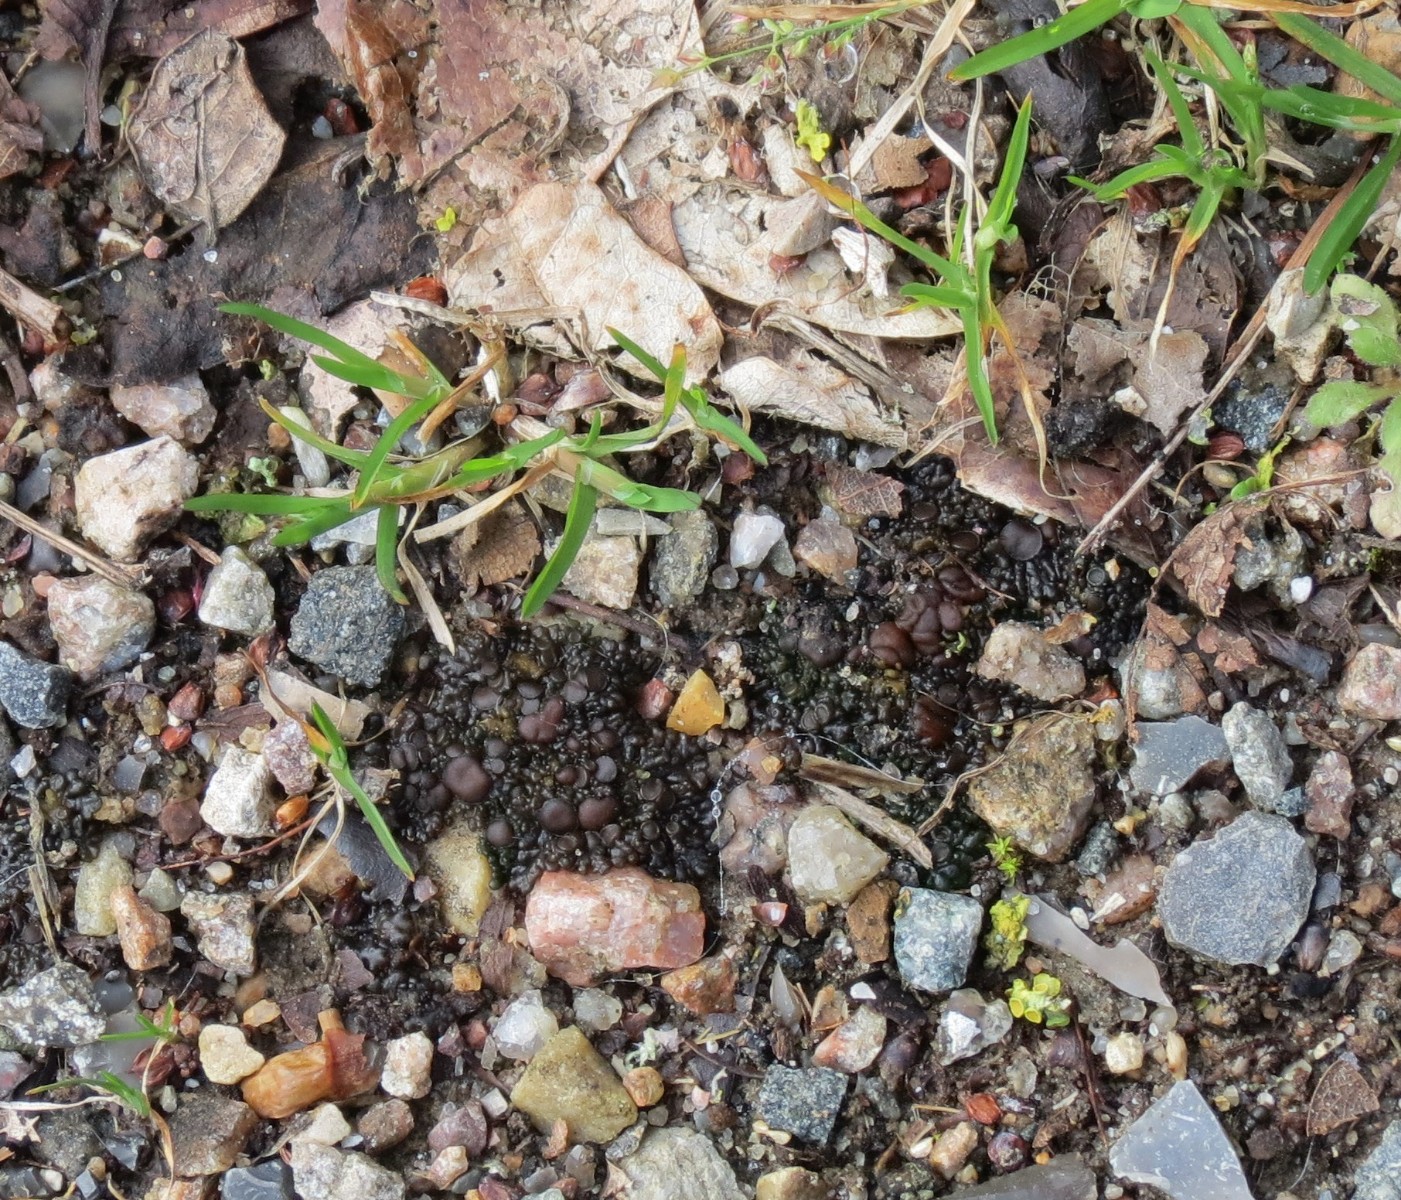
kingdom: Fungi
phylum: Ascomycota
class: Lecanoromycetes
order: Peltigerales
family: Collemataceae
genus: Enchylium
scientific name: Enchylium tenax
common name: tyk bævrelav
